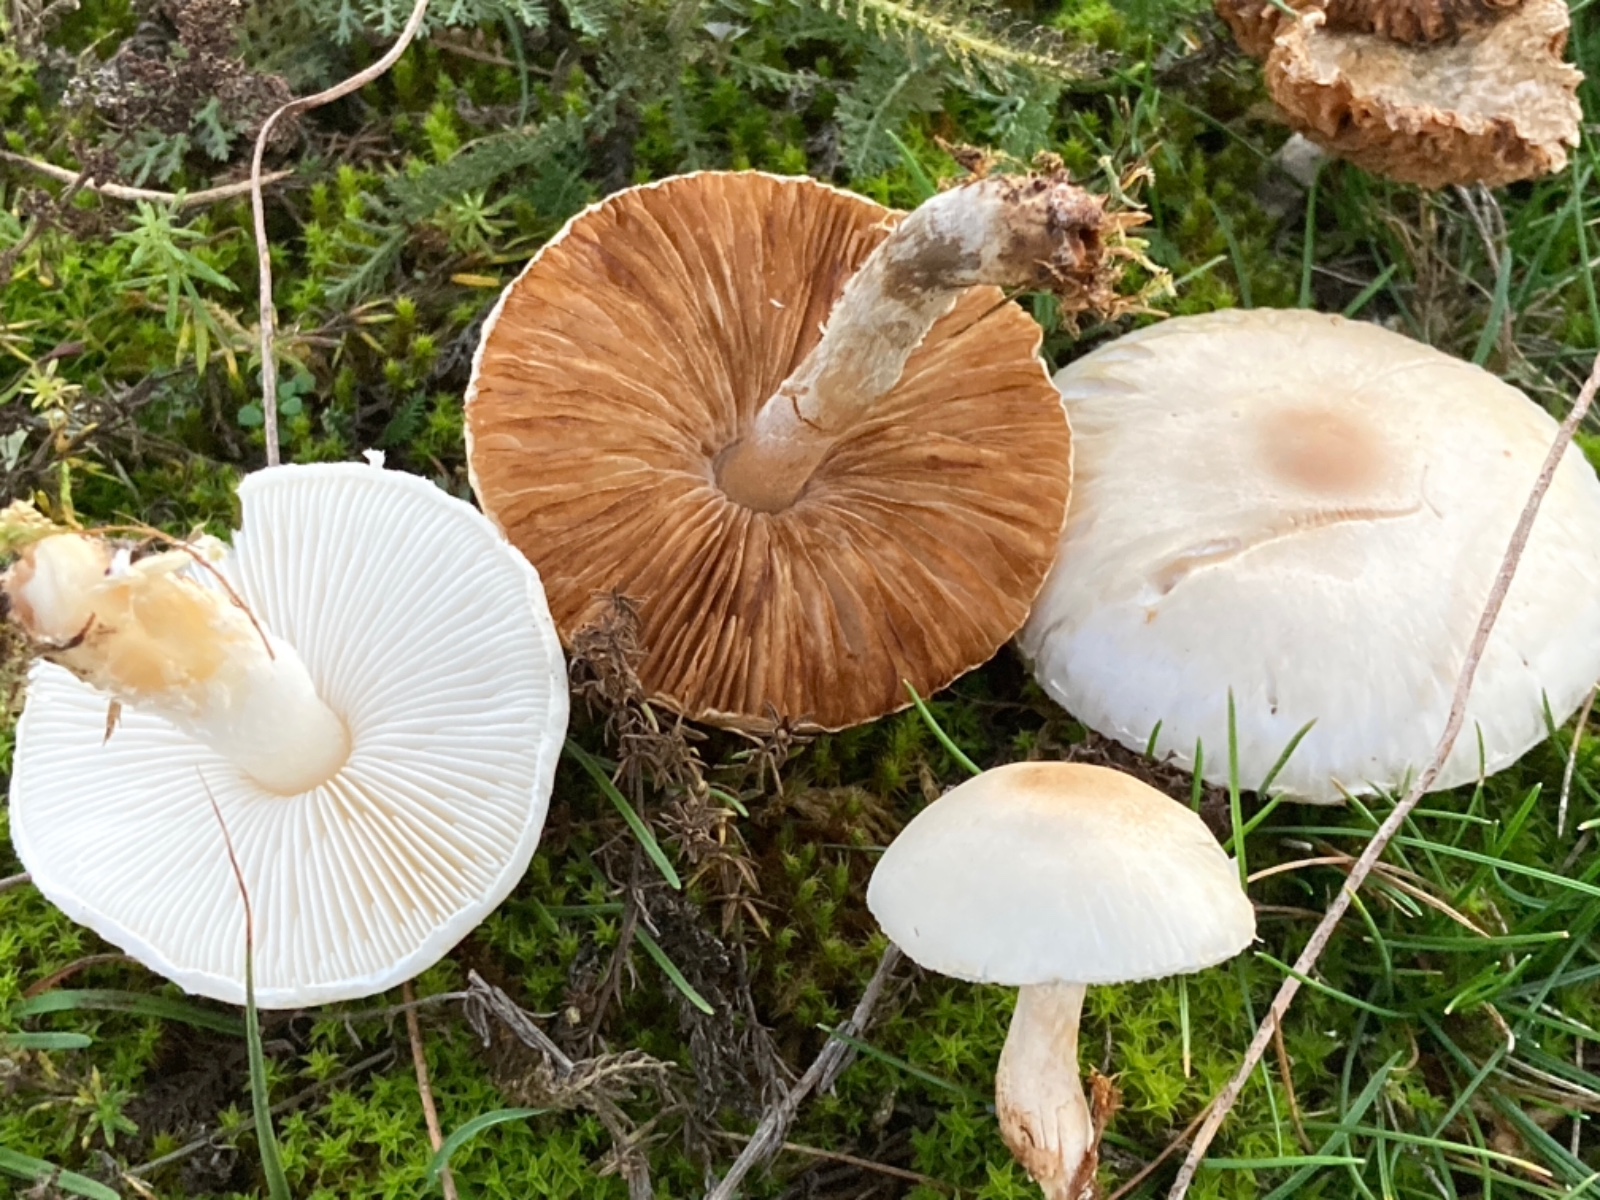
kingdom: Fungi
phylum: Basidiomycota
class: Agaricomycetes
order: Agaricales
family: Agaricaceae
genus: Lepiota
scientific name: Lepiota erminea
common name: hvid parasolhat
